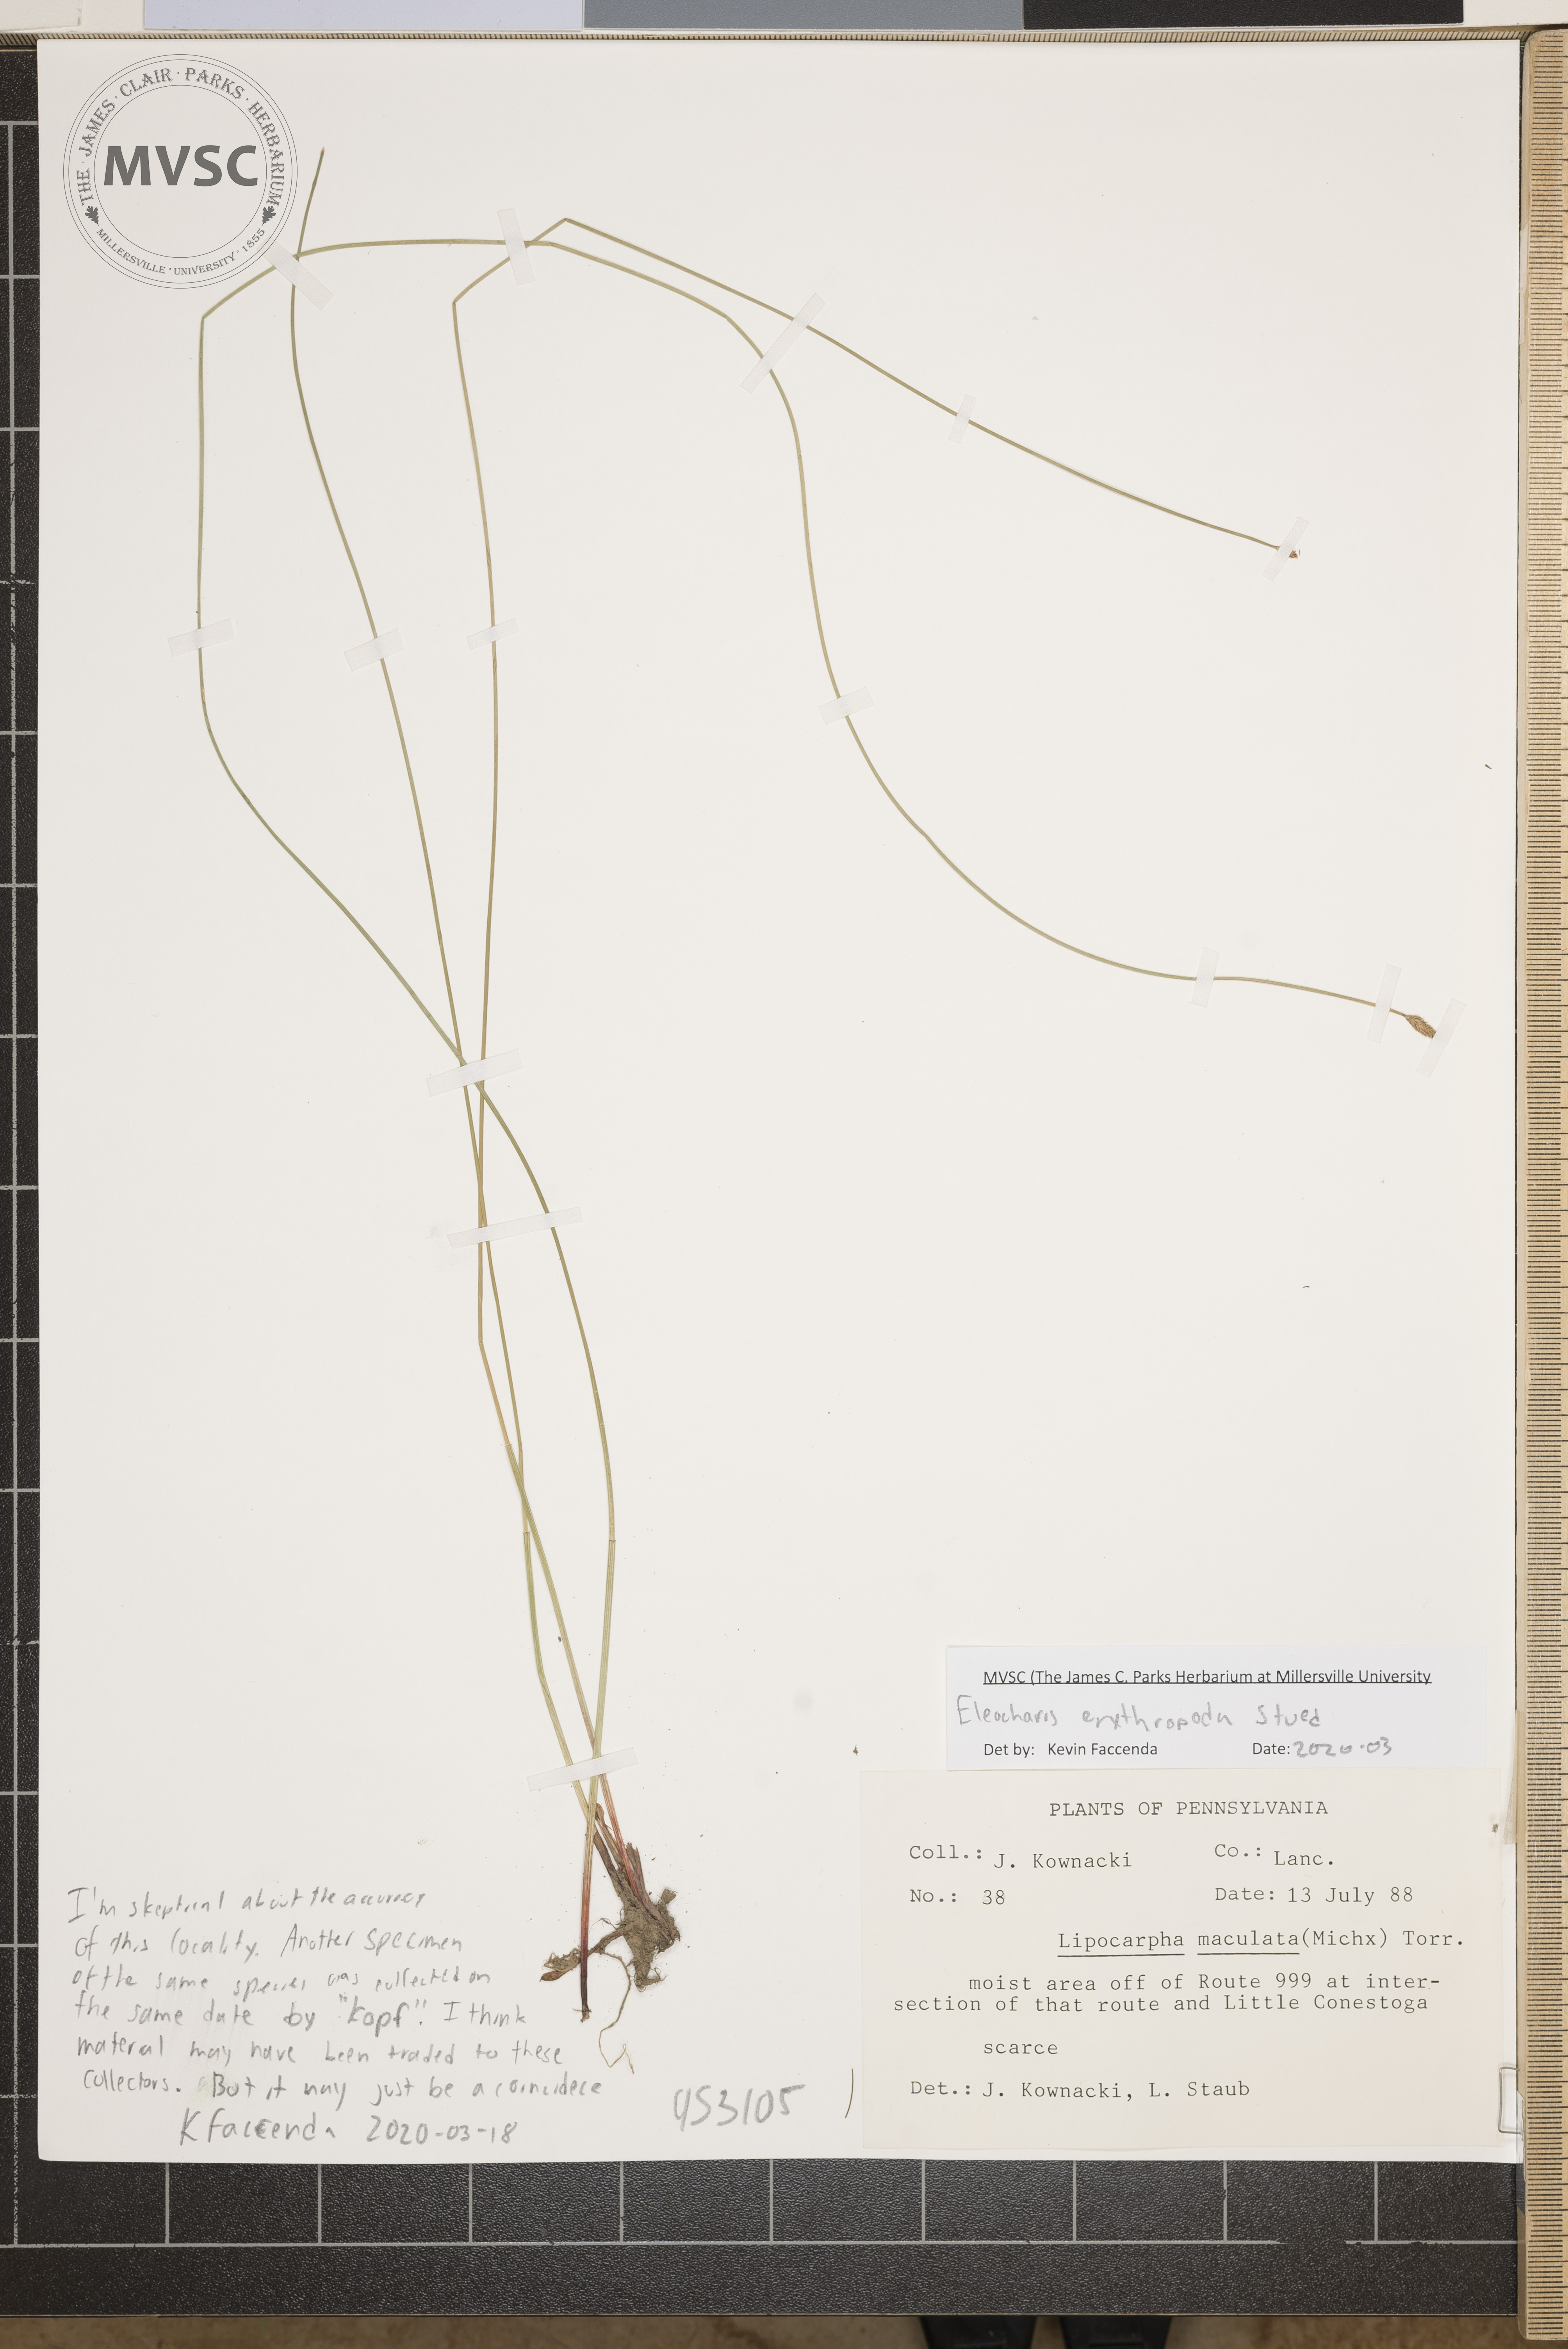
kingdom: Plantae
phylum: Tracheophyta
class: Liliopsida
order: Poales
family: Cyperaceae
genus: Eleocharis
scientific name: Eleocharis erythropoda
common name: Bald spikerush
